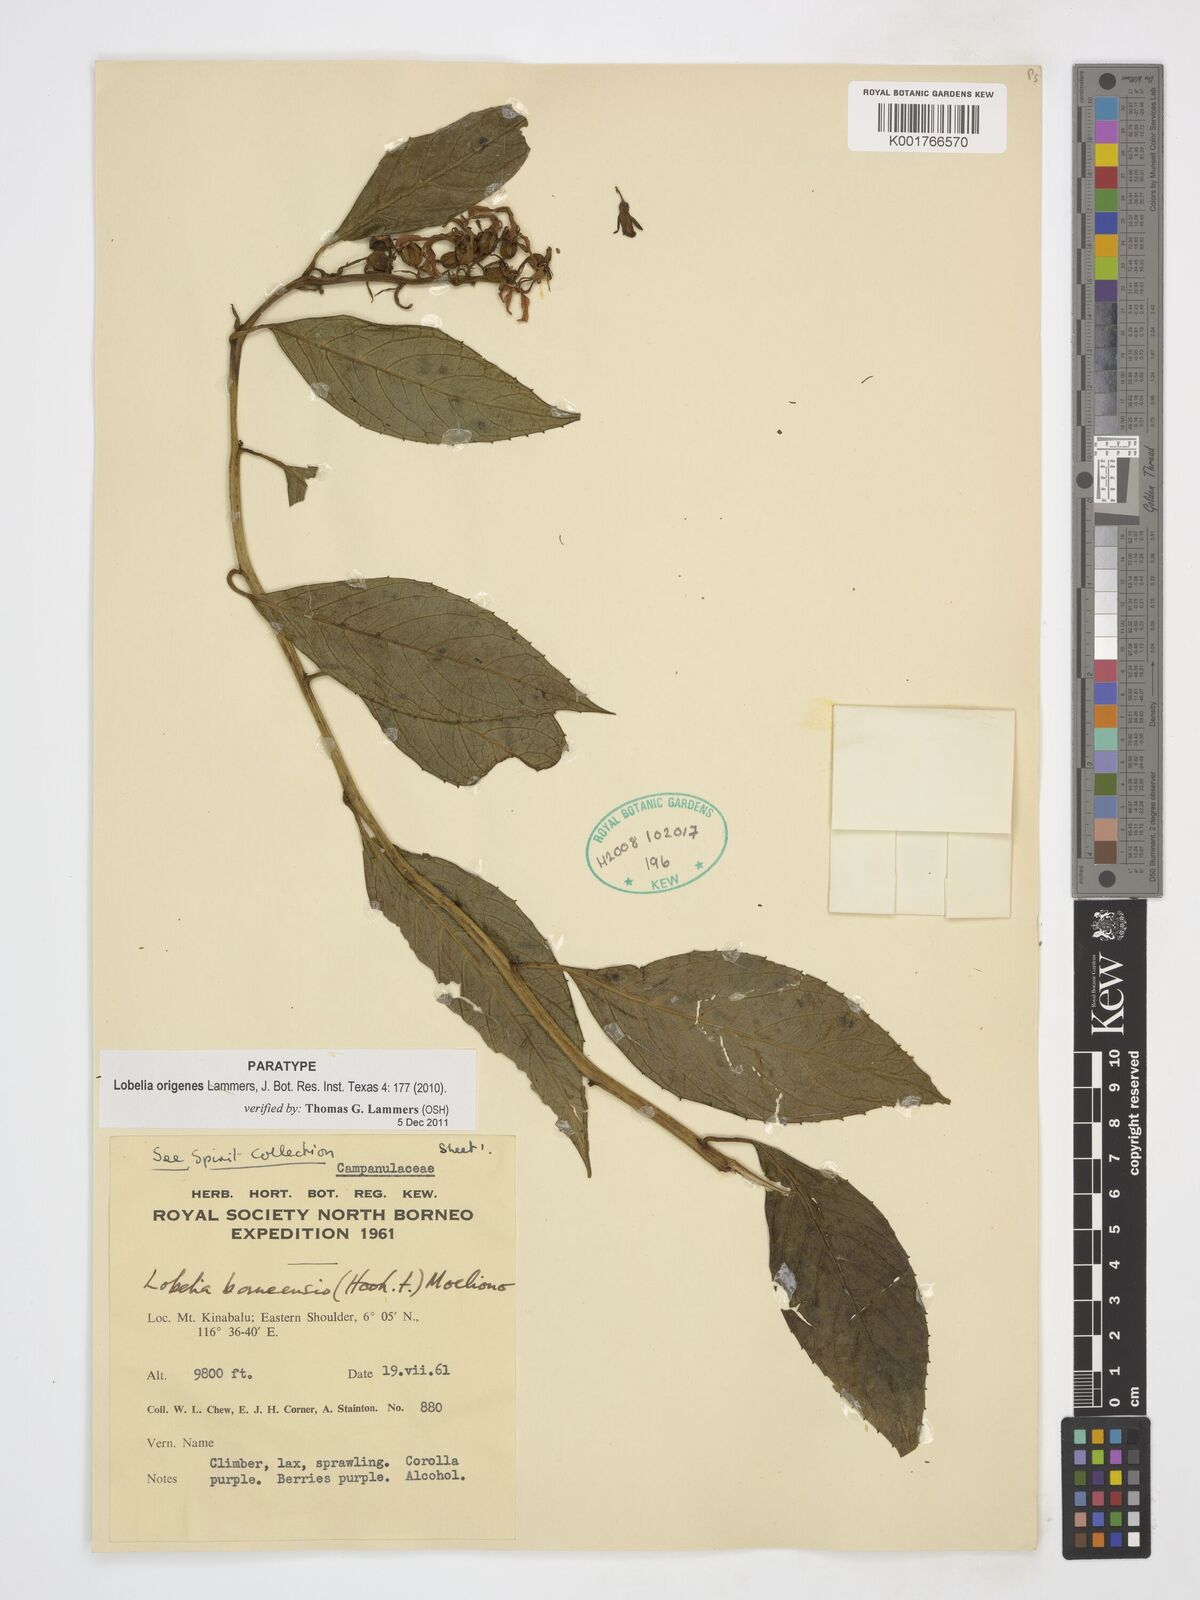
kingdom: Plantae
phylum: Tracheophyta
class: Magnoliopsida
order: Asterales
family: Campanulaceae
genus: Lobelia
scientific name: Lobelia origenes
